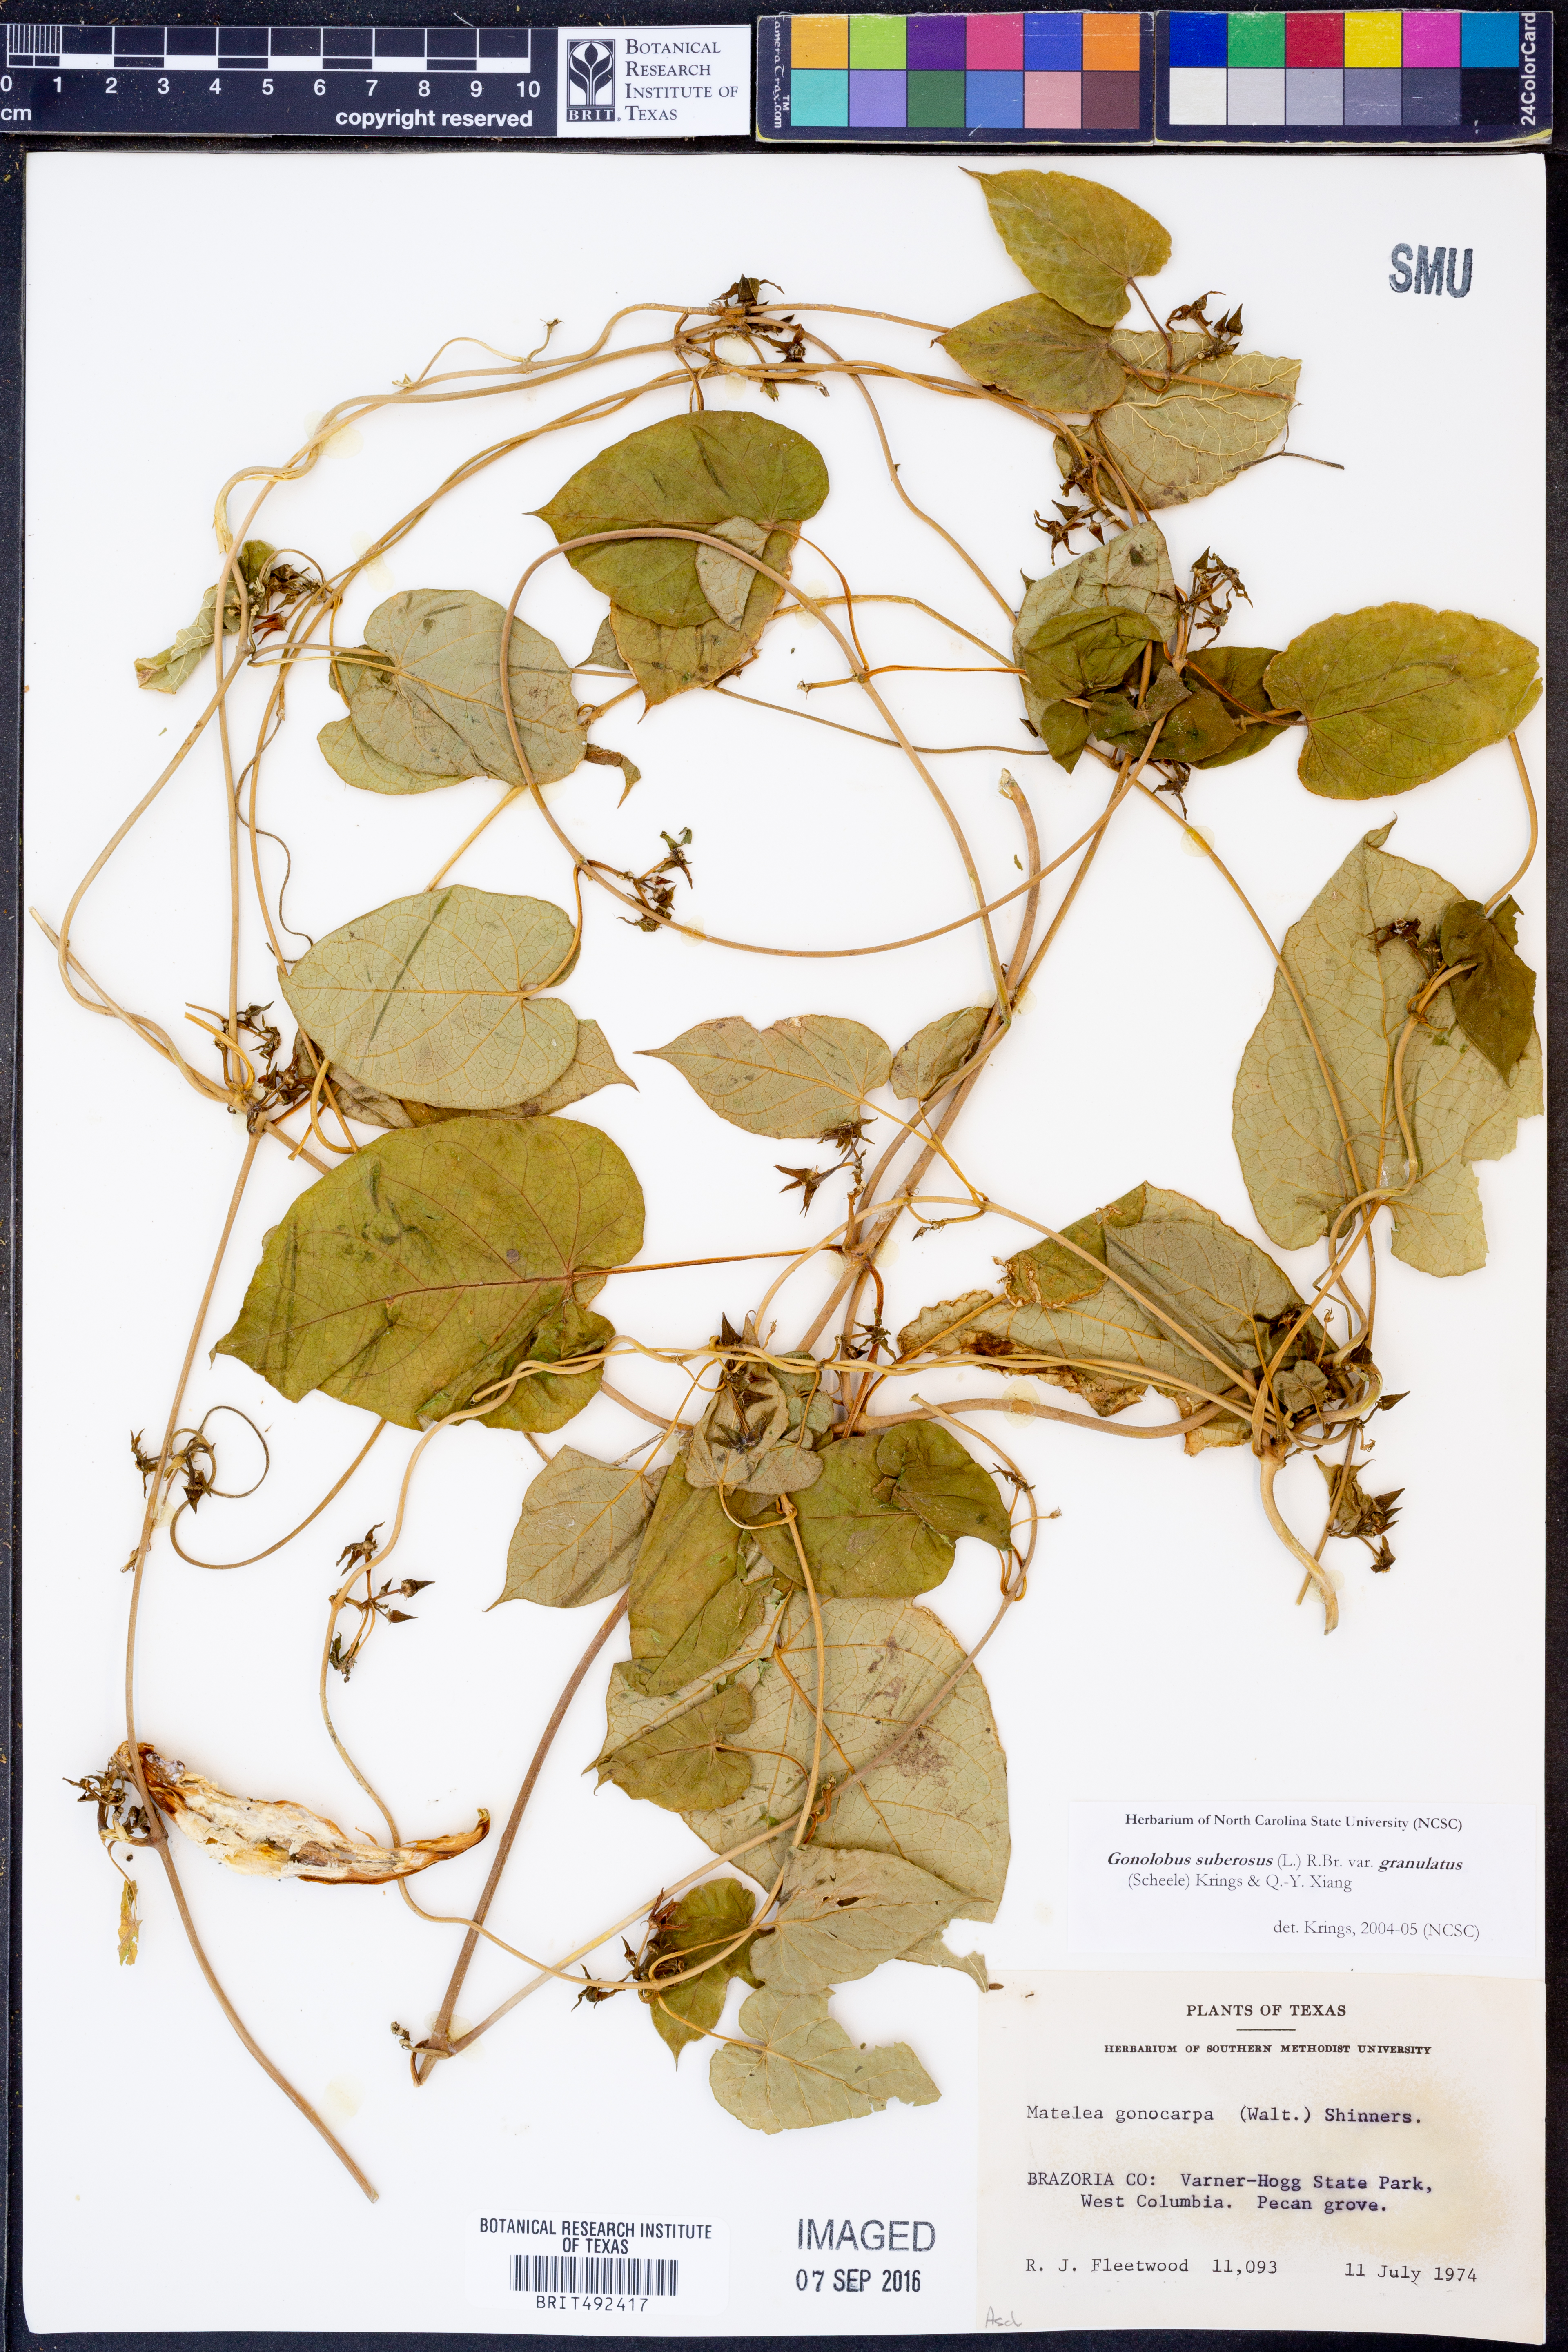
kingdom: Plantae
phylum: Tracheophyta
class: Magnoliopsida
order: Gentianales
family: Apocynaceae
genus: Gonolobus
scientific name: Gonolobus suberosus
